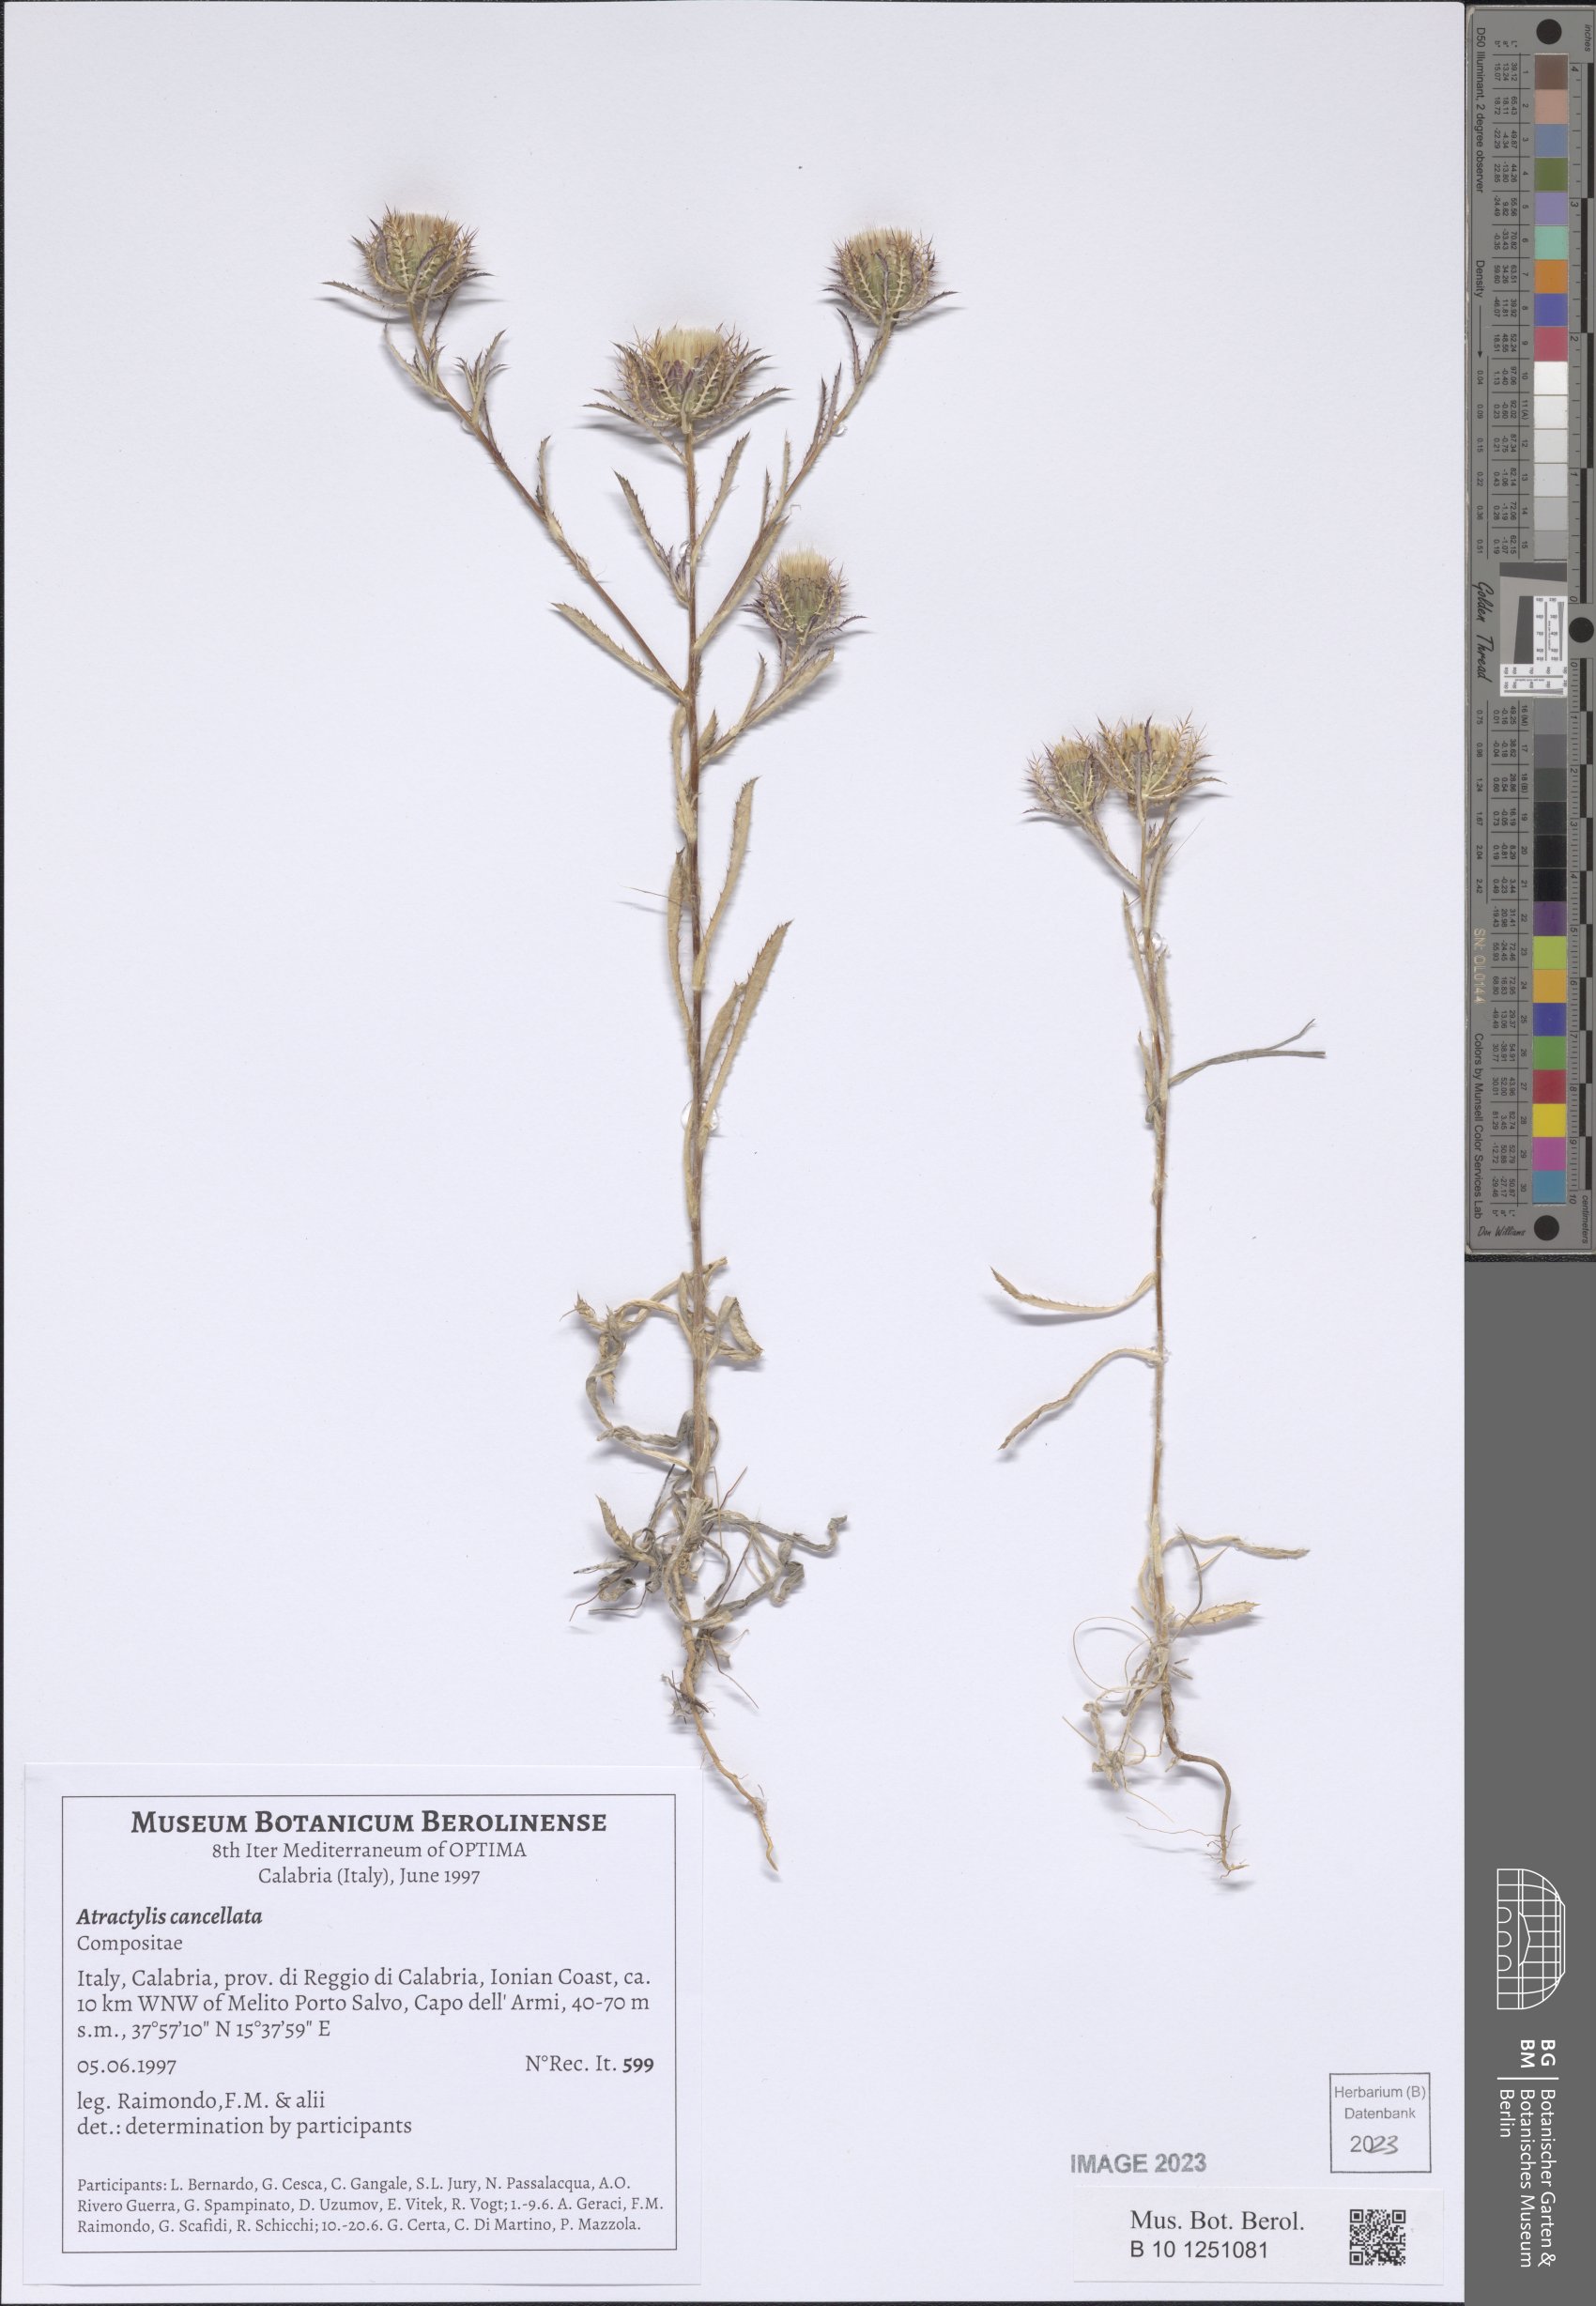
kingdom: Plantae
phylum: Tracheophyta
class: Magnoliopsida
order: Asterales
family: Asteraceae
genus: Atractylis
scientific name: Atractylis cancellata
